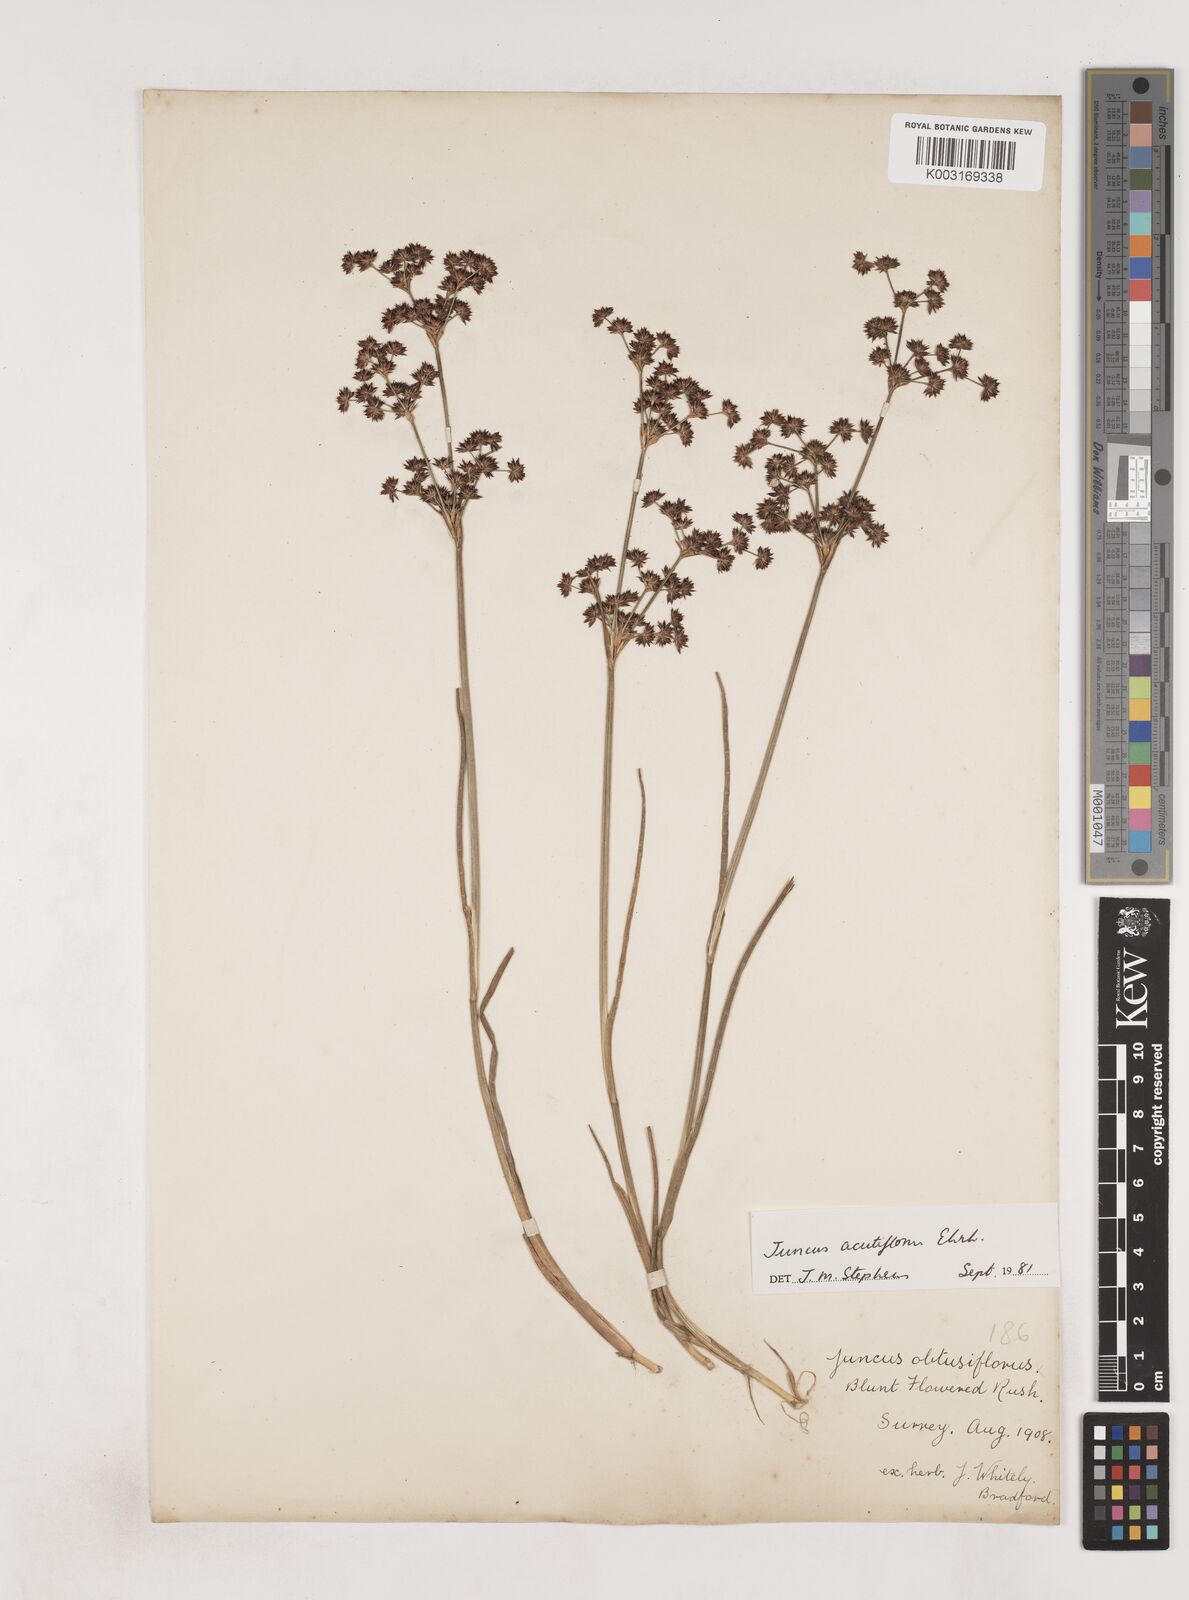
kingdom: Plantae
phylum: Tracheophyta
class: Liliopsida
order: Poales
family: Juncaceae
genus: Juncus
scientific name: Juncus acutiflorus
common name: Sharp-flowered rush
